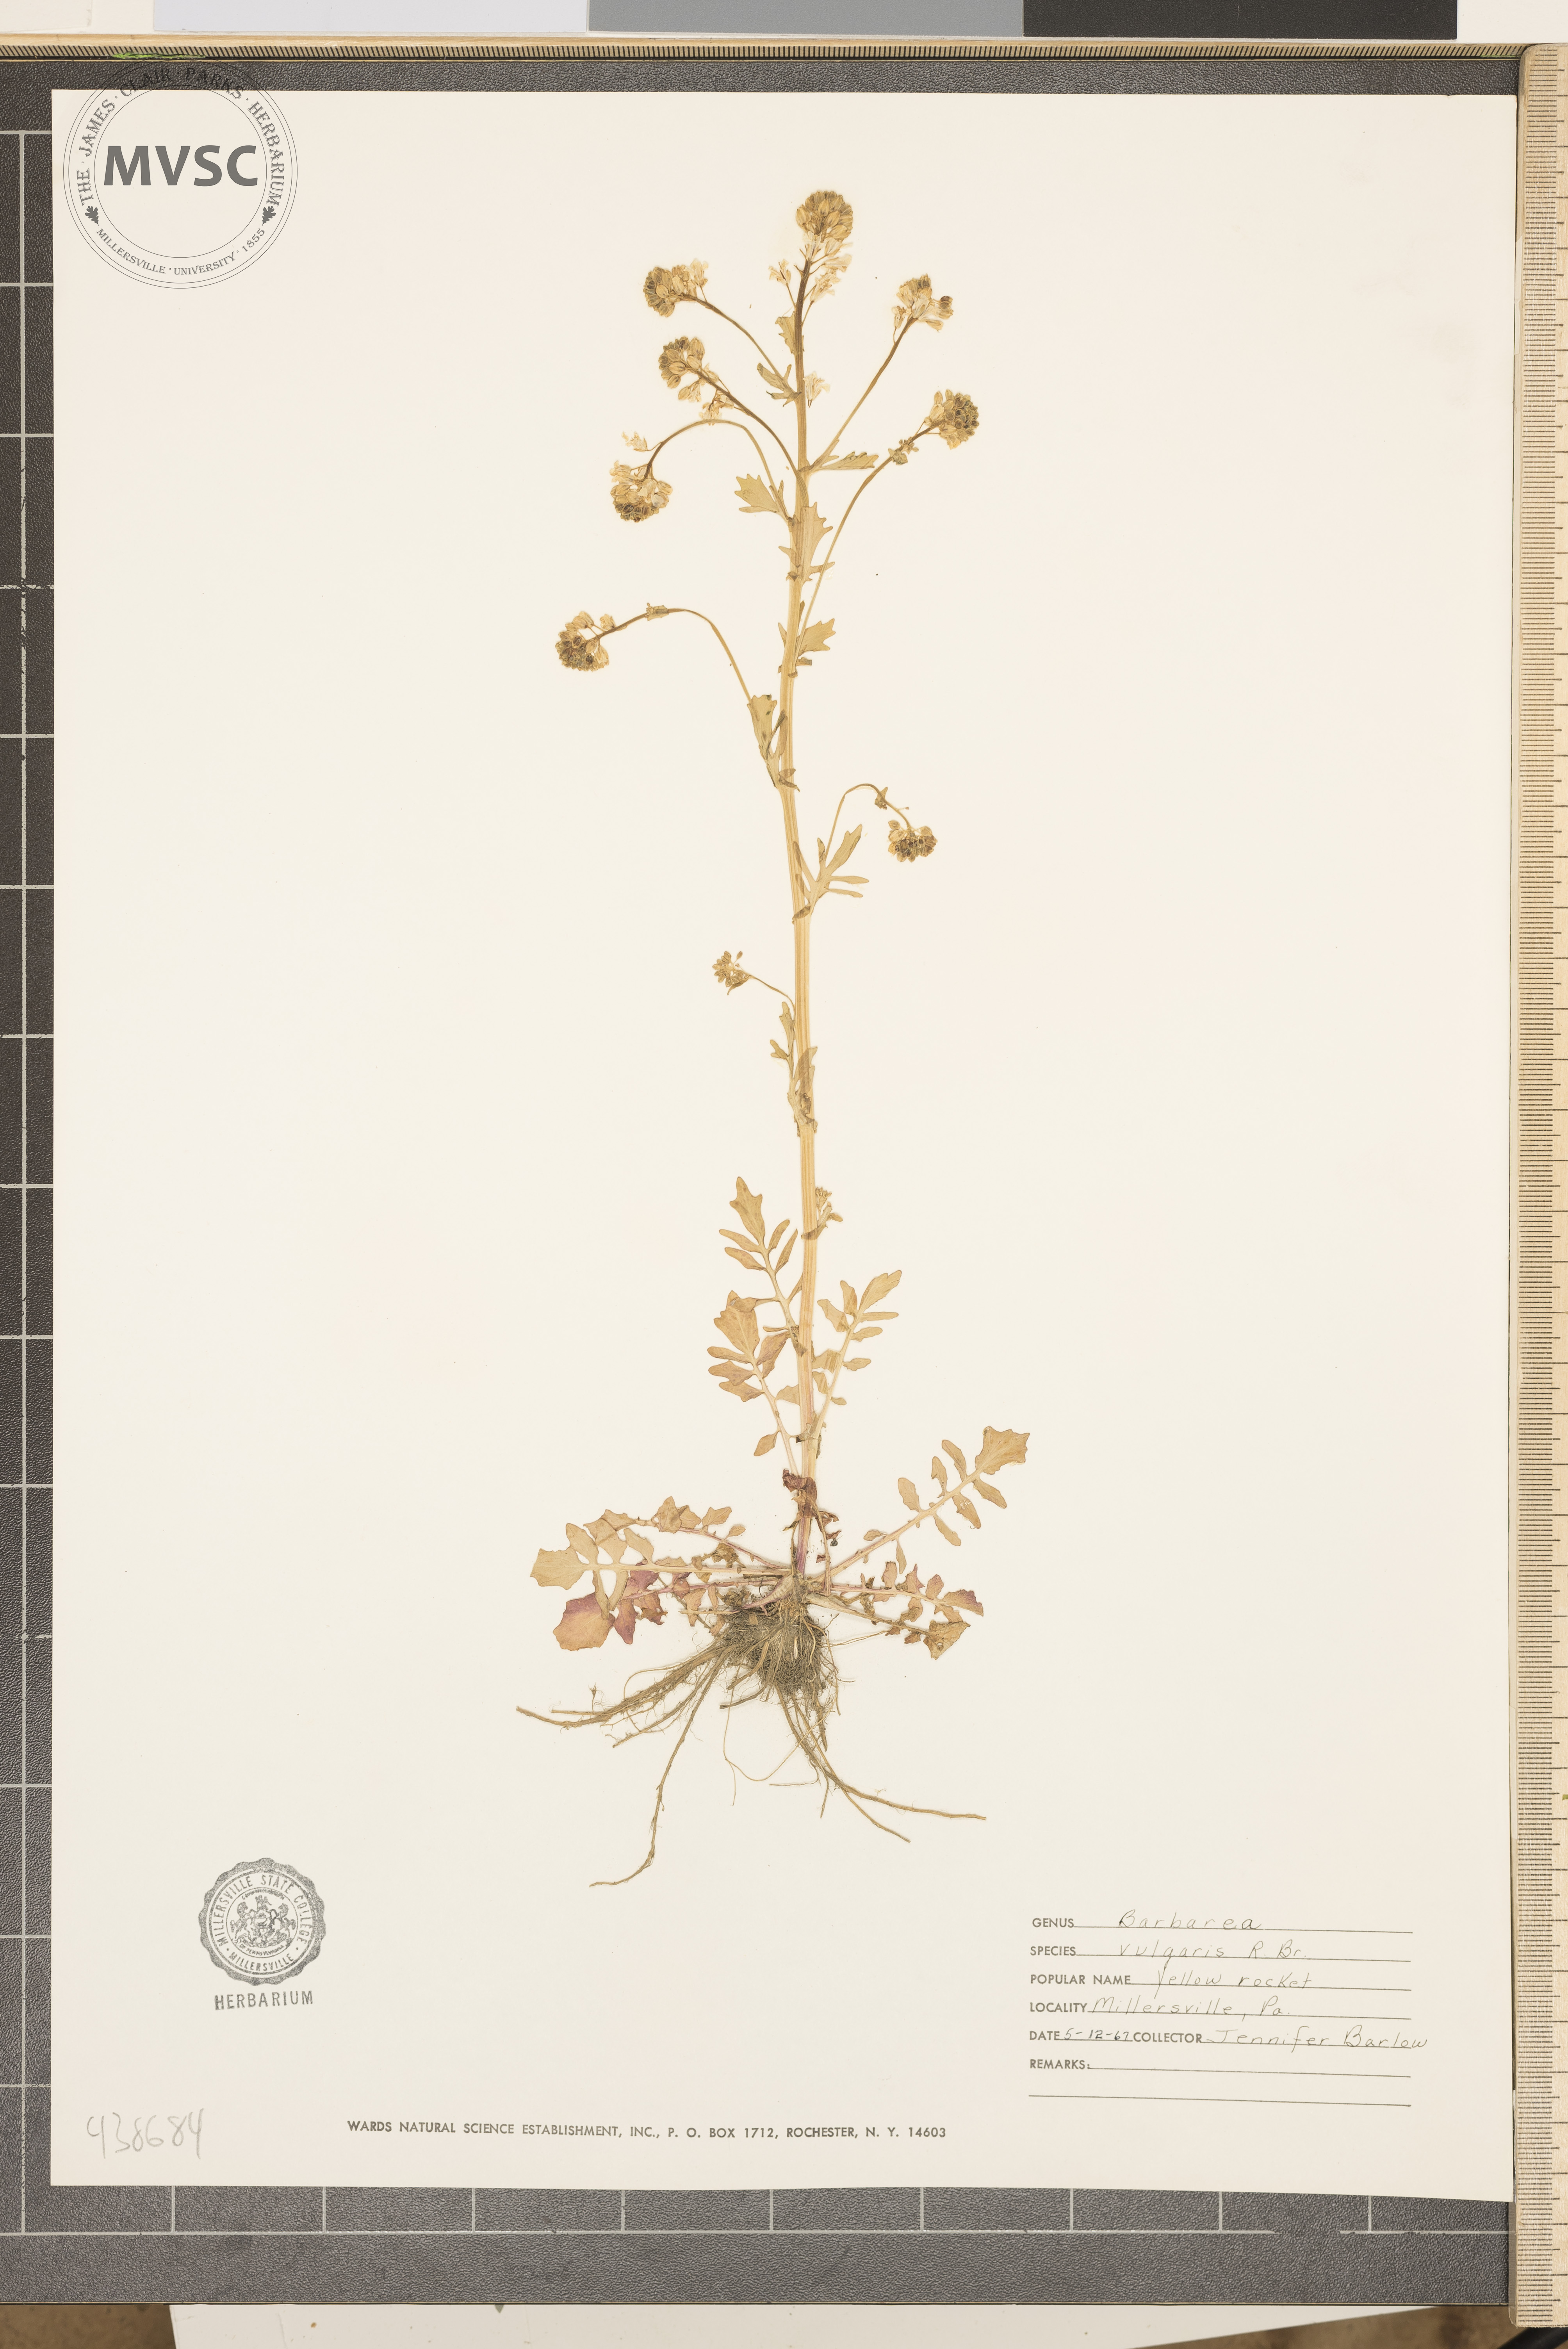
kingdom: Plantae
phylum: Tracheophyta
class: Magnoliopsida
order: Brassicales
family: Brassicaceae
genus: Barbarea
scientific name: Barbarea vulgaris
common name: Cressy-greens
